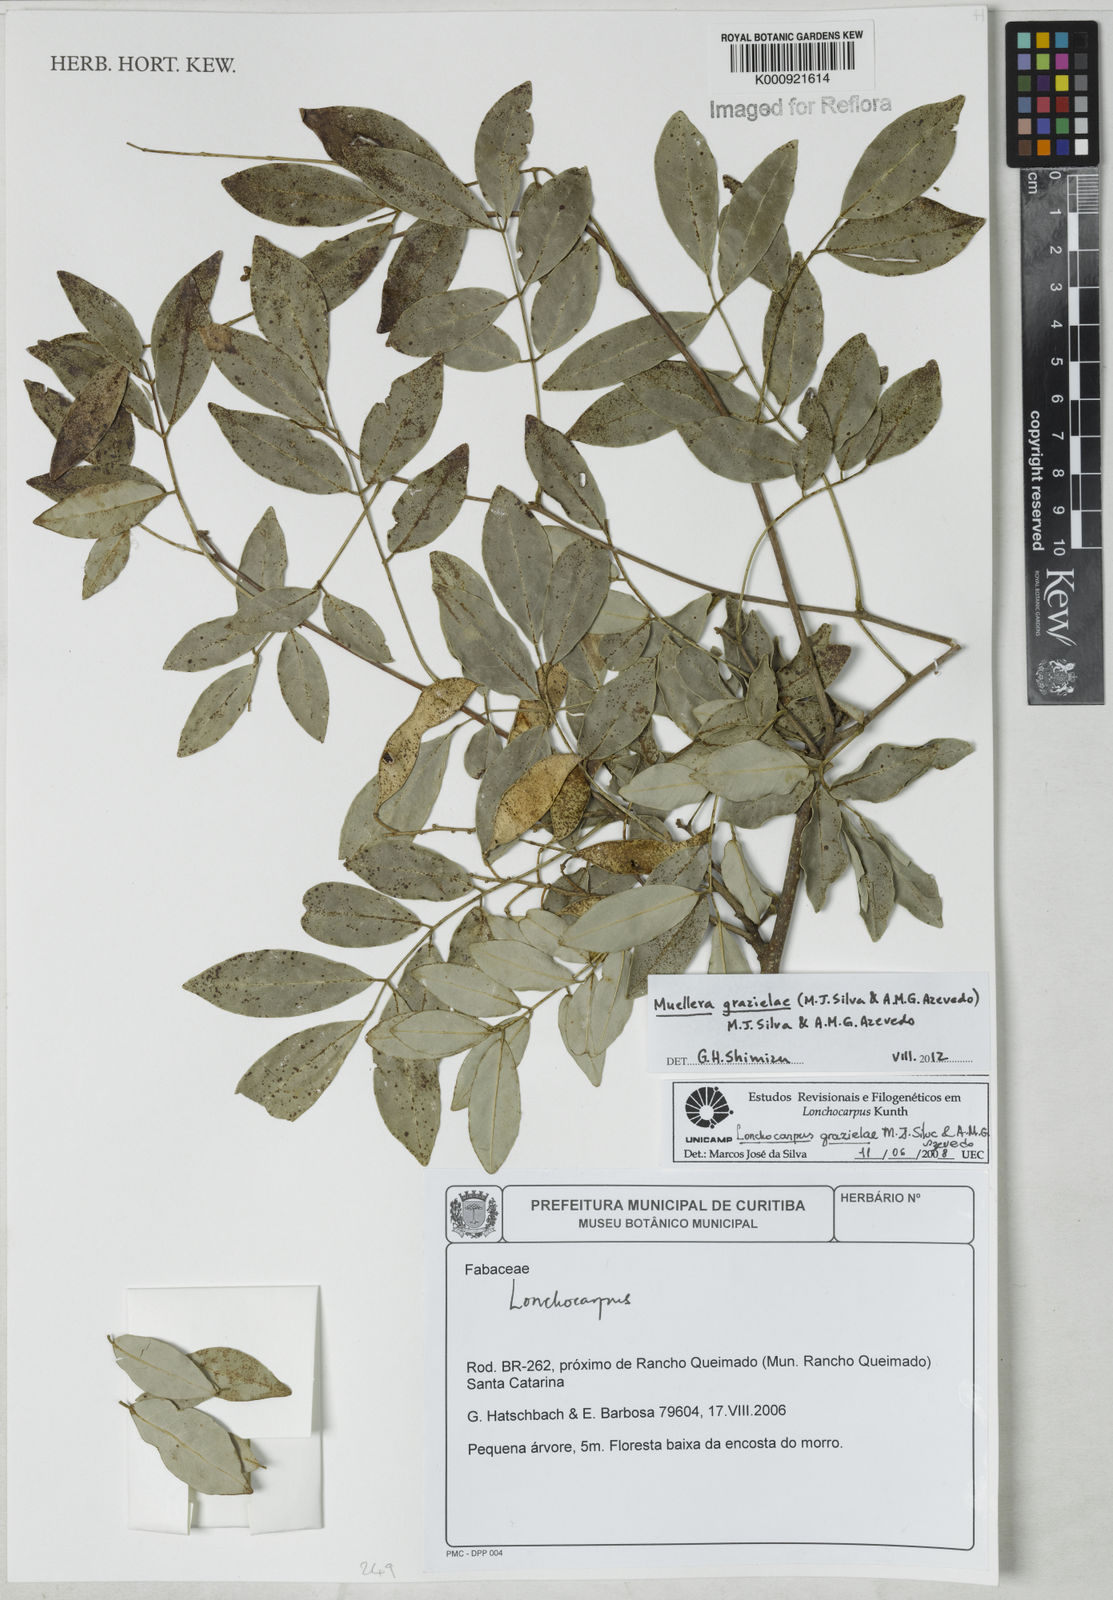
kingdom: Plantae
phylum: Tracheophyta
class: Magnoliopsida
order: Fabales
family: Fabaceae
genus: Muellera
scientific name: Muellera
